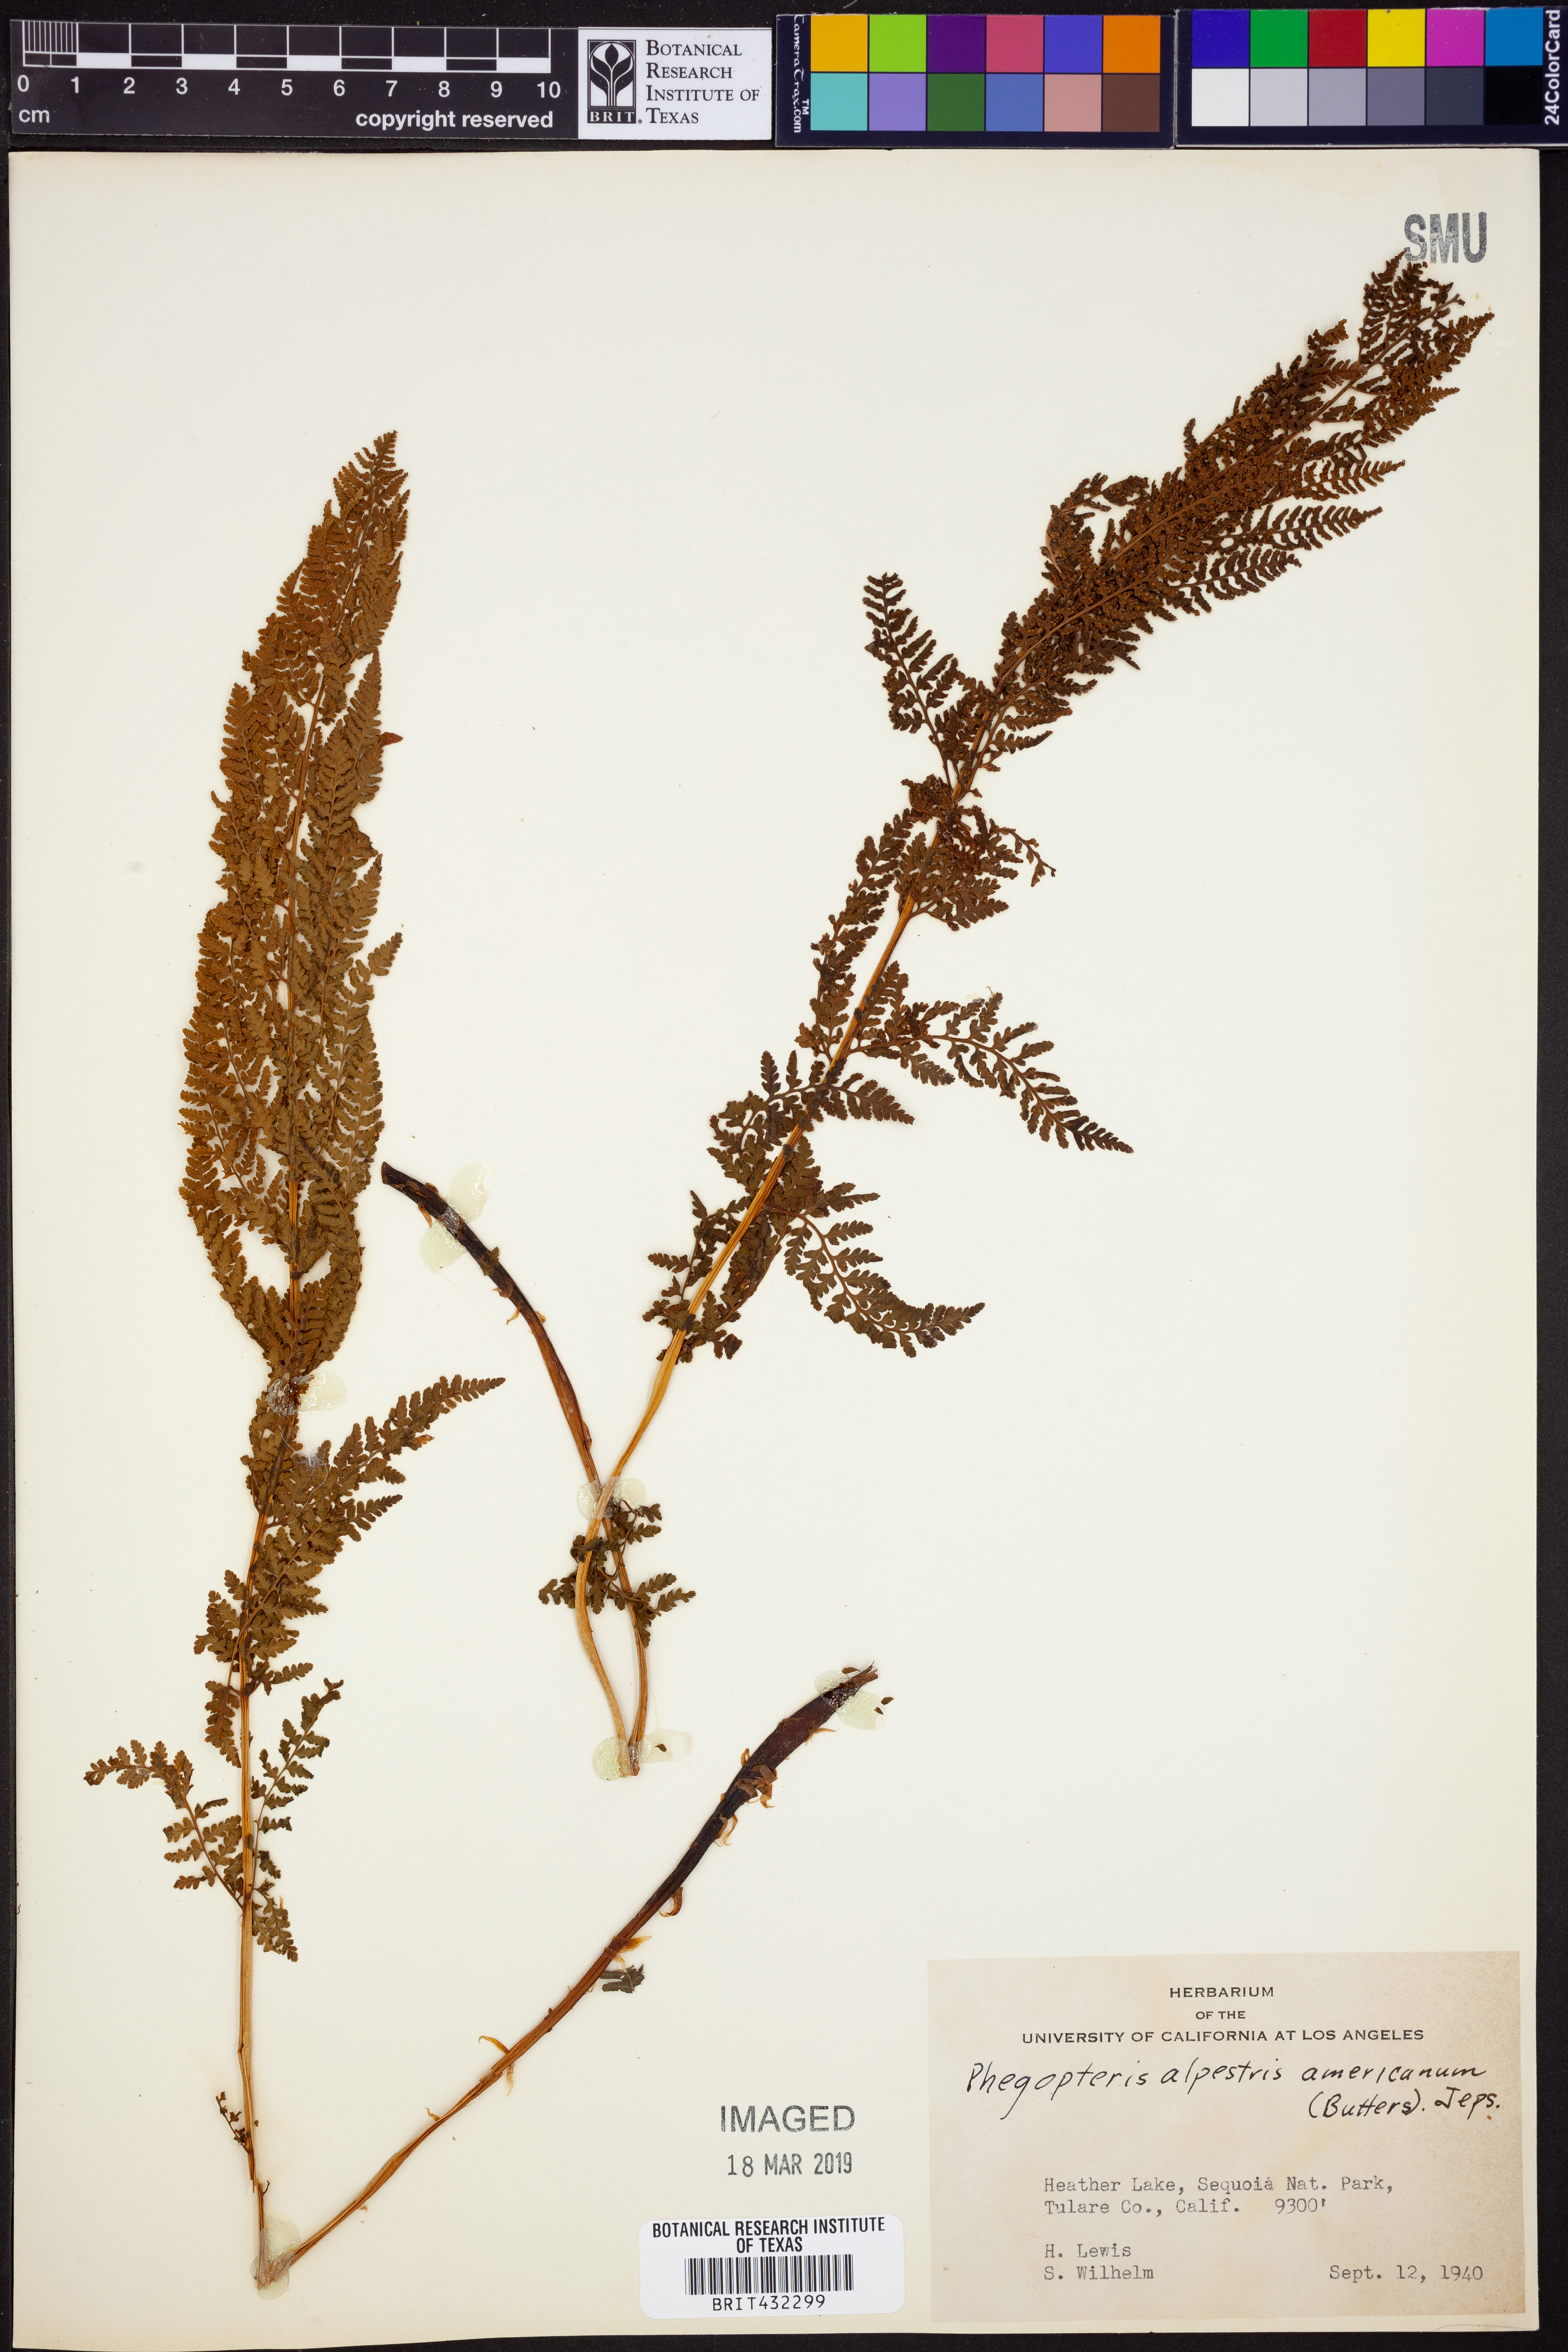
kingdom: Plantae
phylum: Tracheophyta
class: Polypodiopsida
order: Polypodiales
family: Athyriaceae
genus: Pseudathyrium
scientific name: Pseudathyrium alpestre
